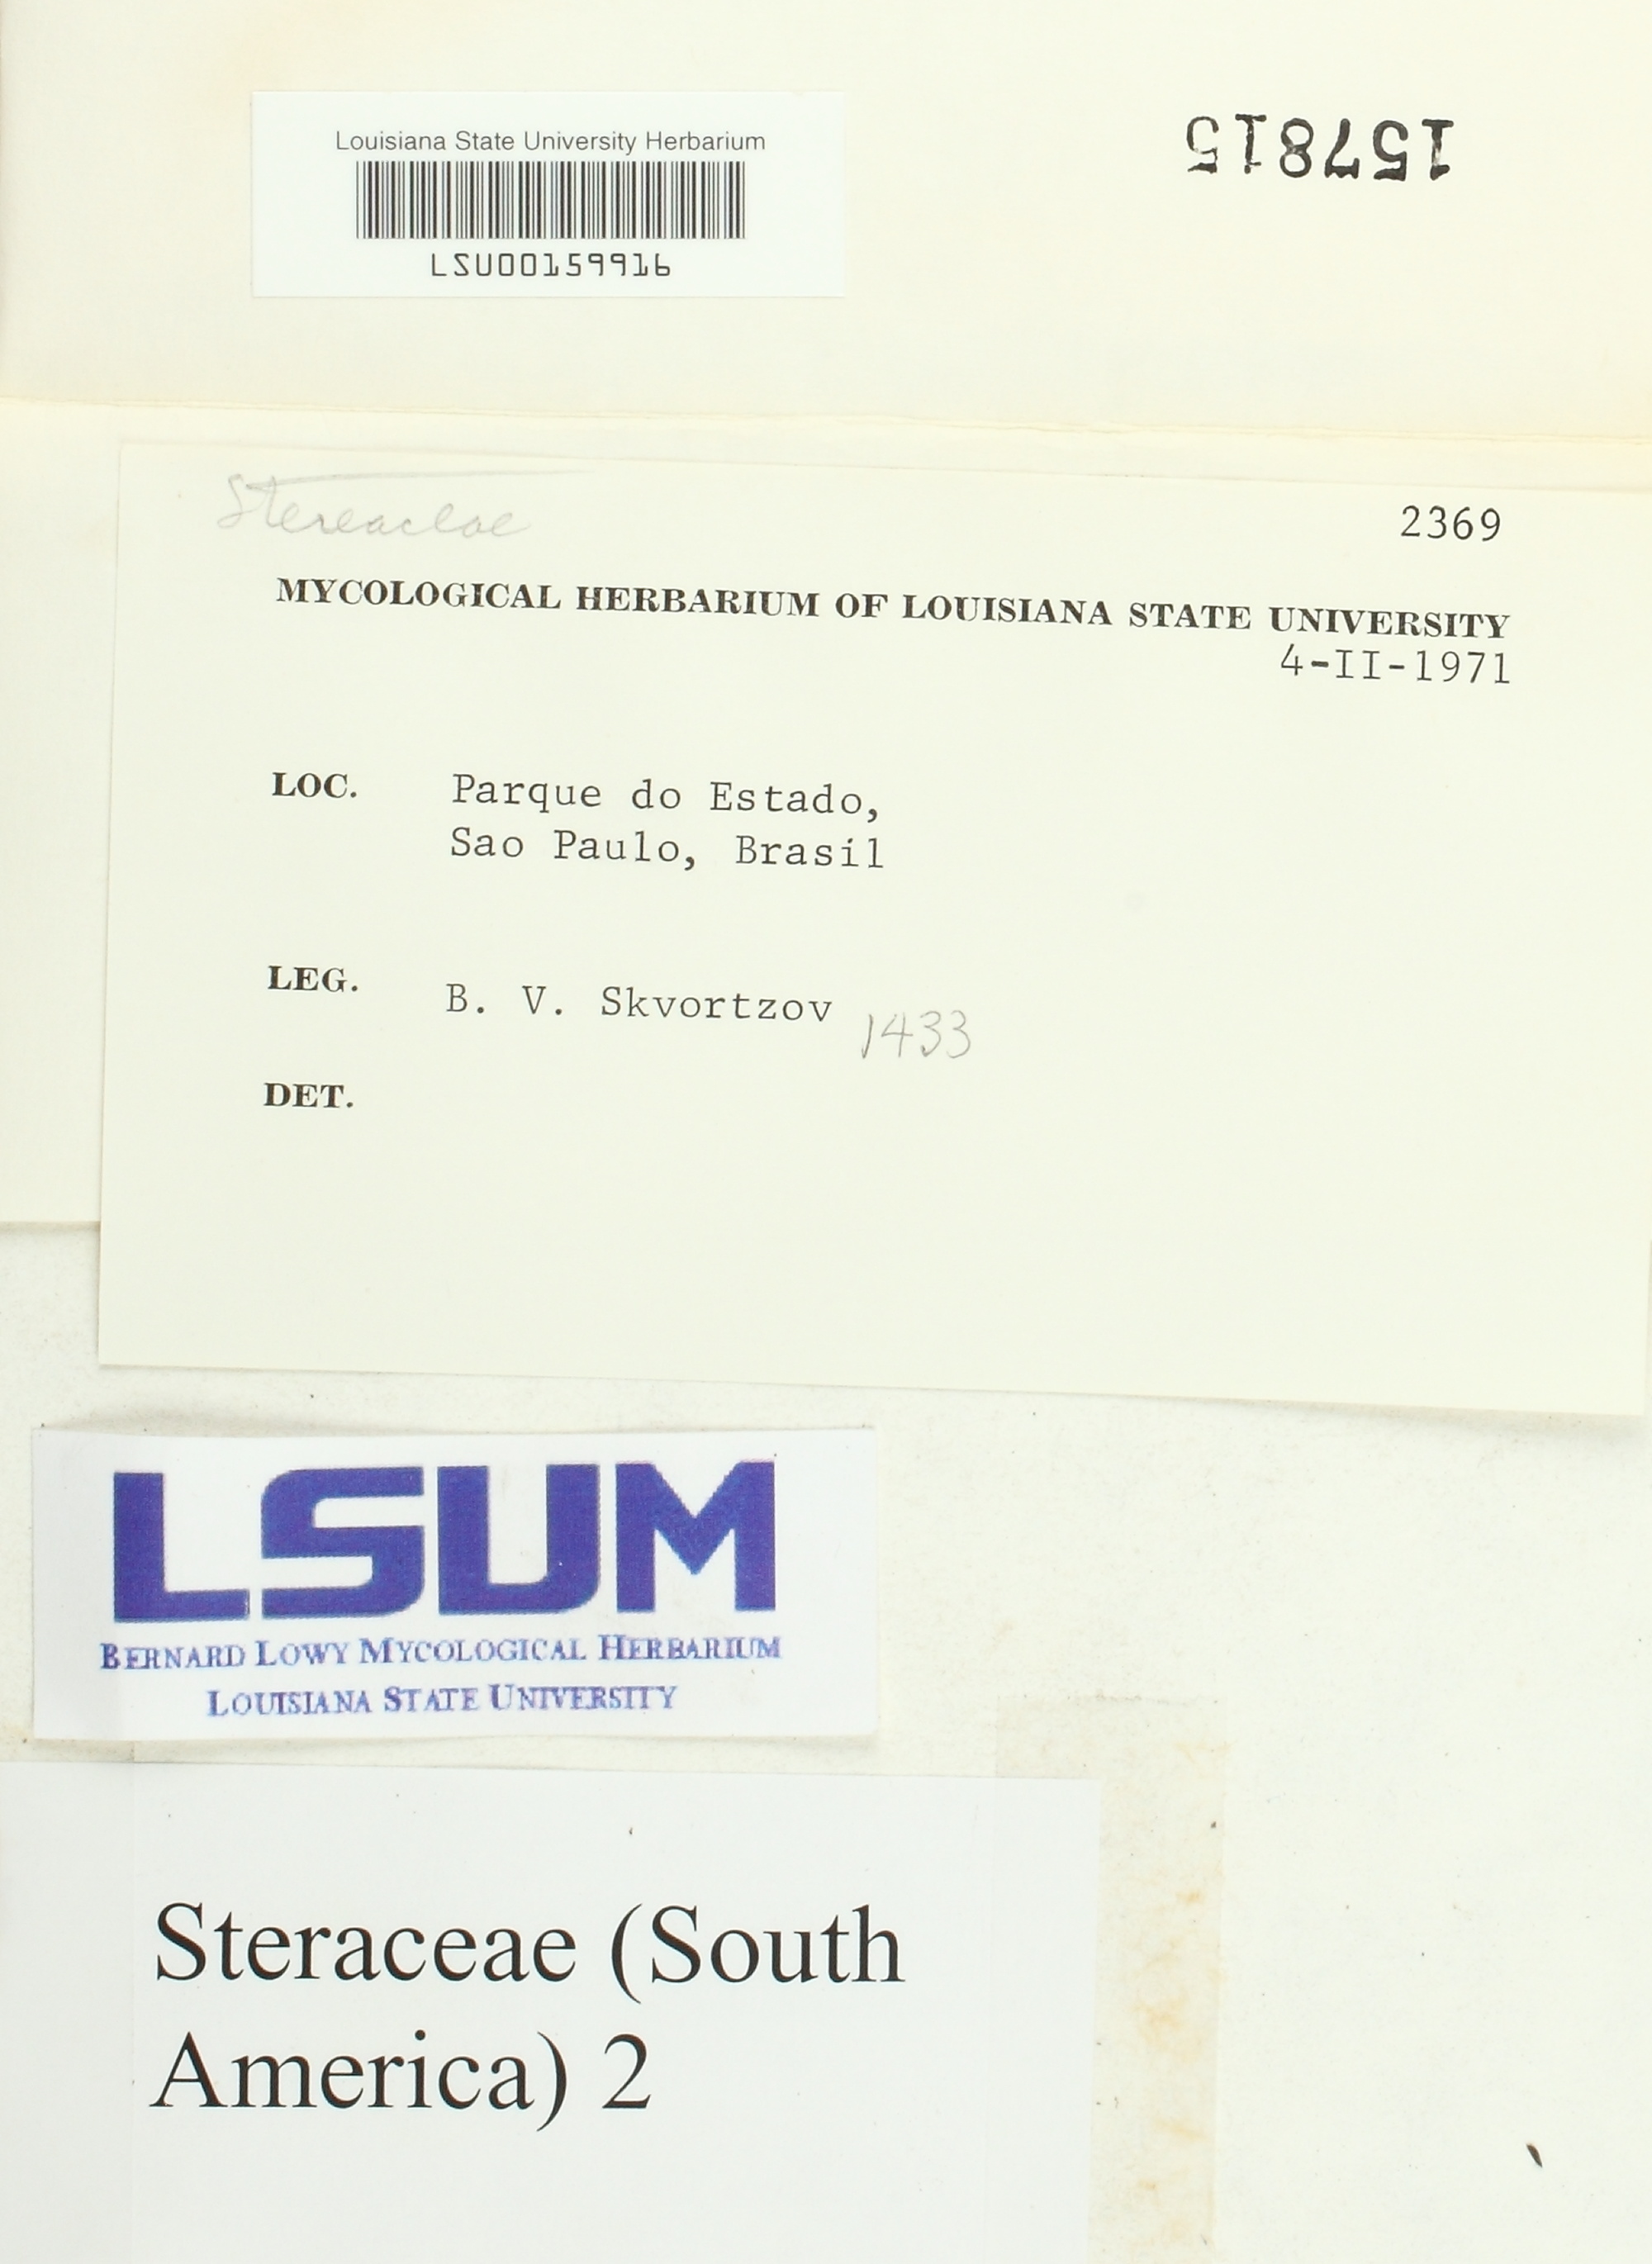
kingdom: Fungi
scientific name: Fungi
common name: Fungi
